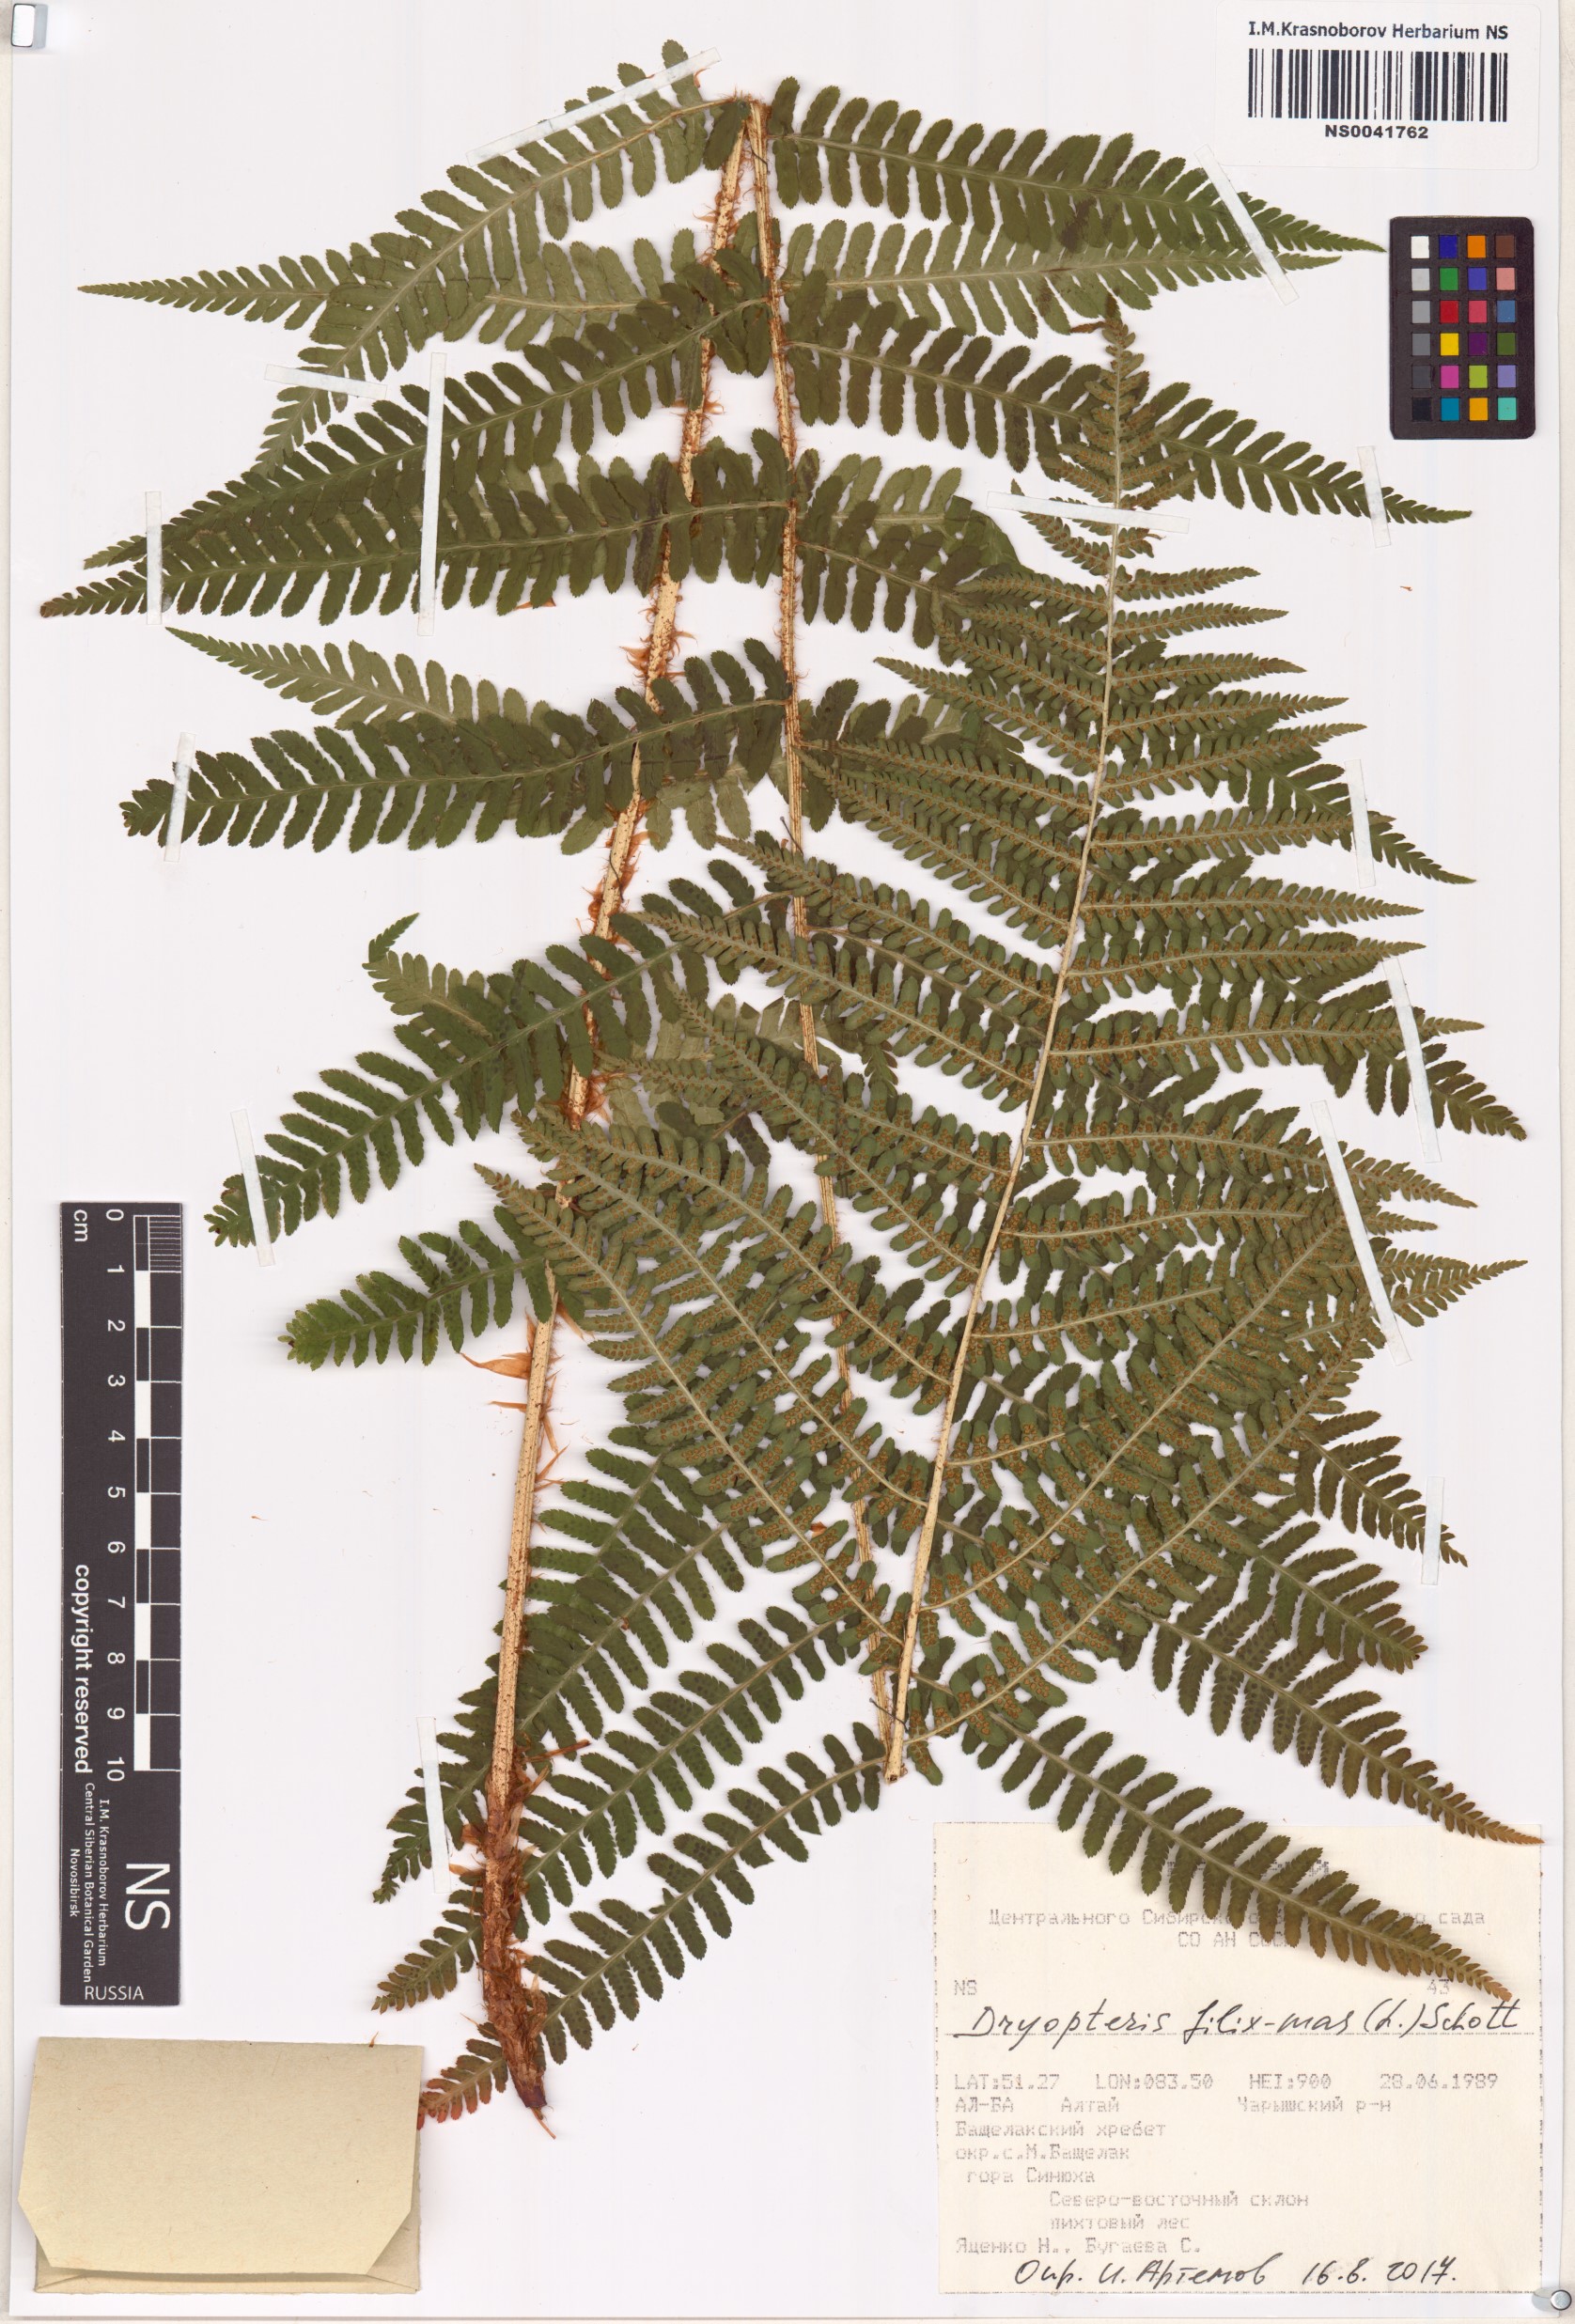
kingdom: Plantae
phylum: Tracheophyta
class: Polypodiopsida
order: Polypodiales
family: Dryopteridaceae
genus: Dryopteris
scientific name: Dryopteris filix-mas
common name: Male fern
